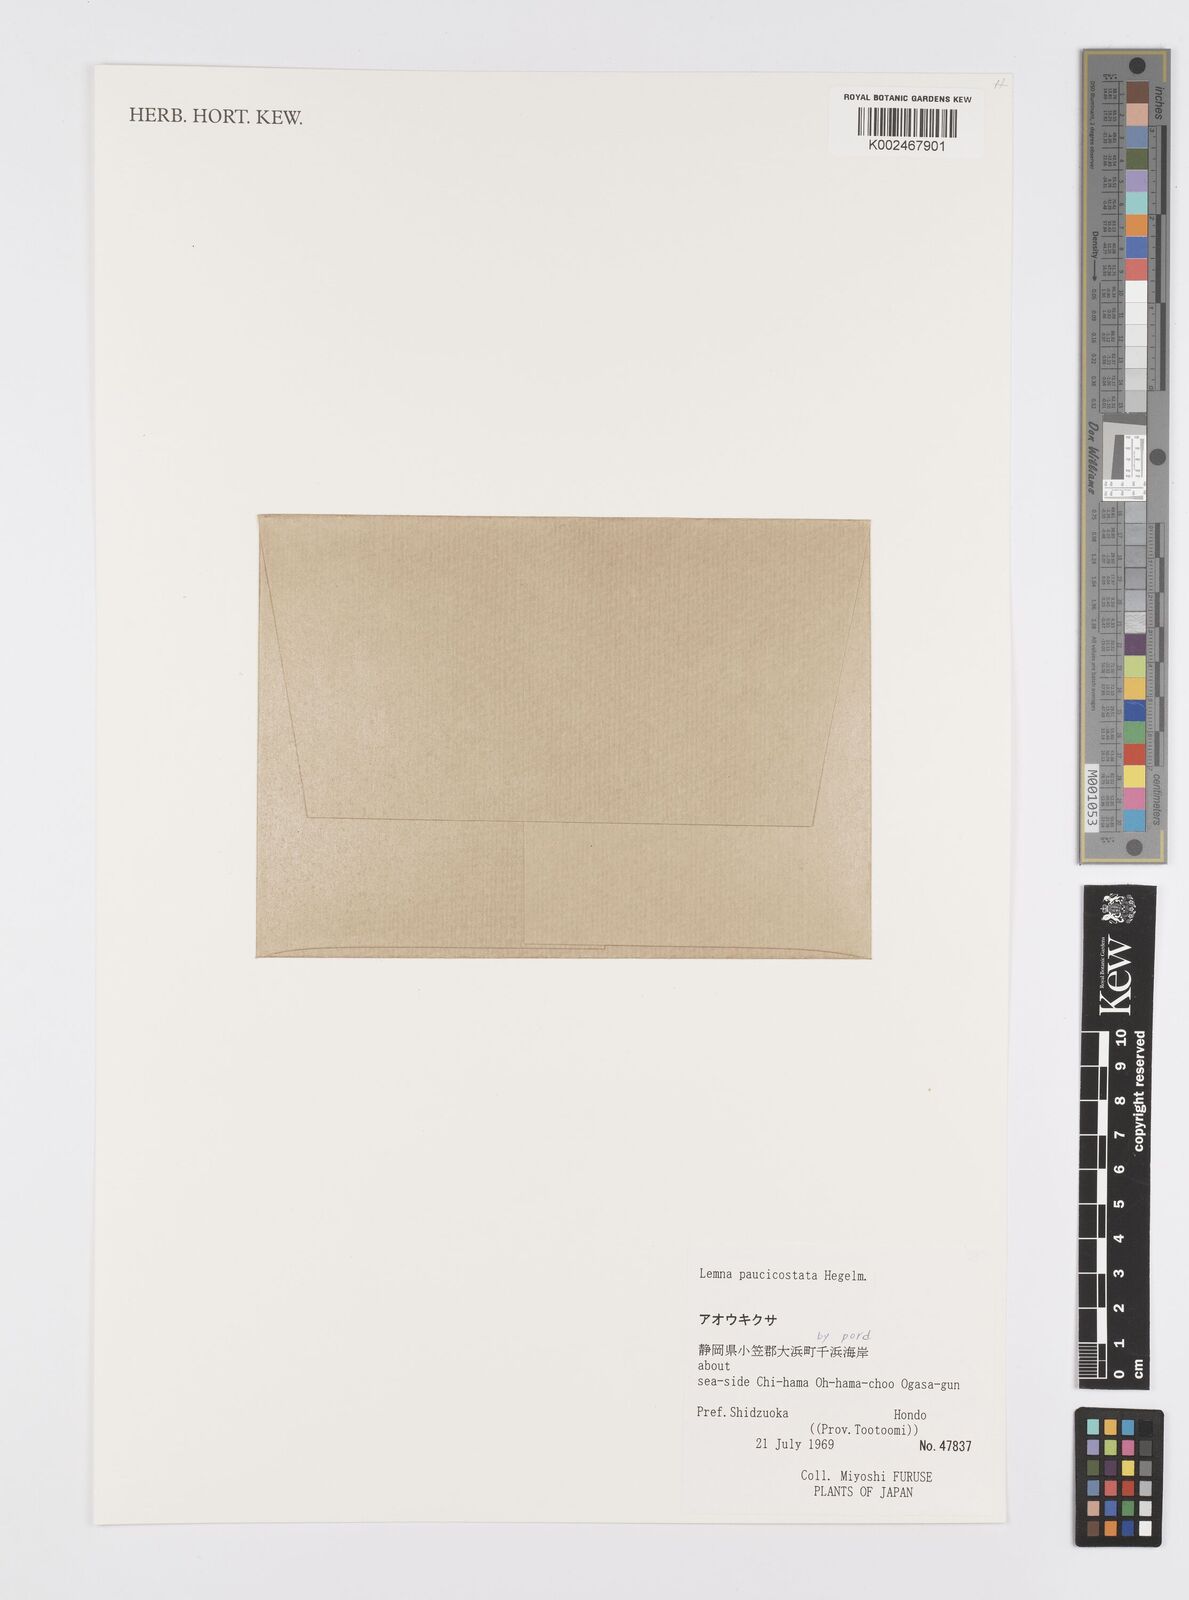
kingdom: Plantae
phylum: Tracheophyta
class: Liliopsida
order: Alismatales
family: Araceae
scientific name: Araceae
